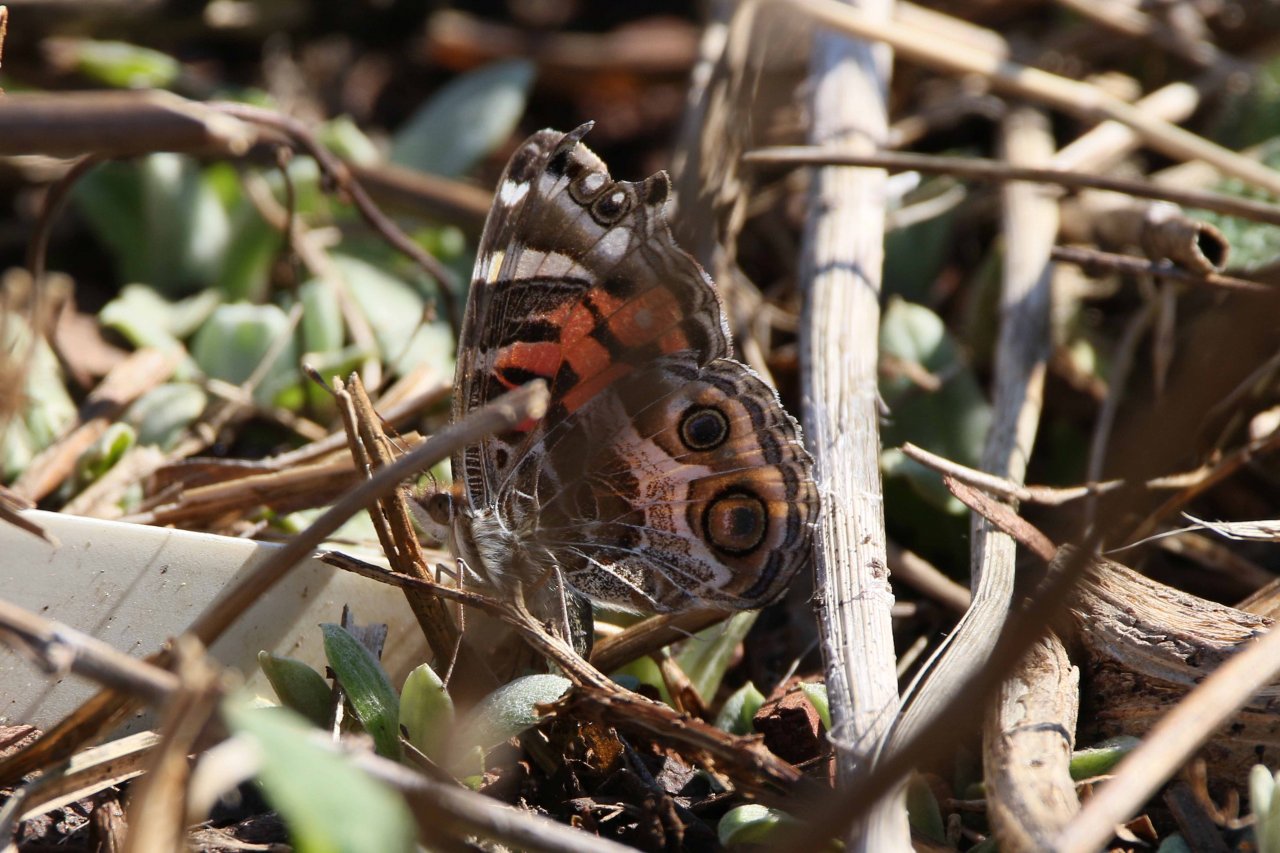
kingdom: Animalia
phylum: Arthropoda
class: Insecta
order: Lepidoptera
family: Nymphalidae
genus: Vanessa
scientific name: Vanessa virginiensis
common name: American Lady
